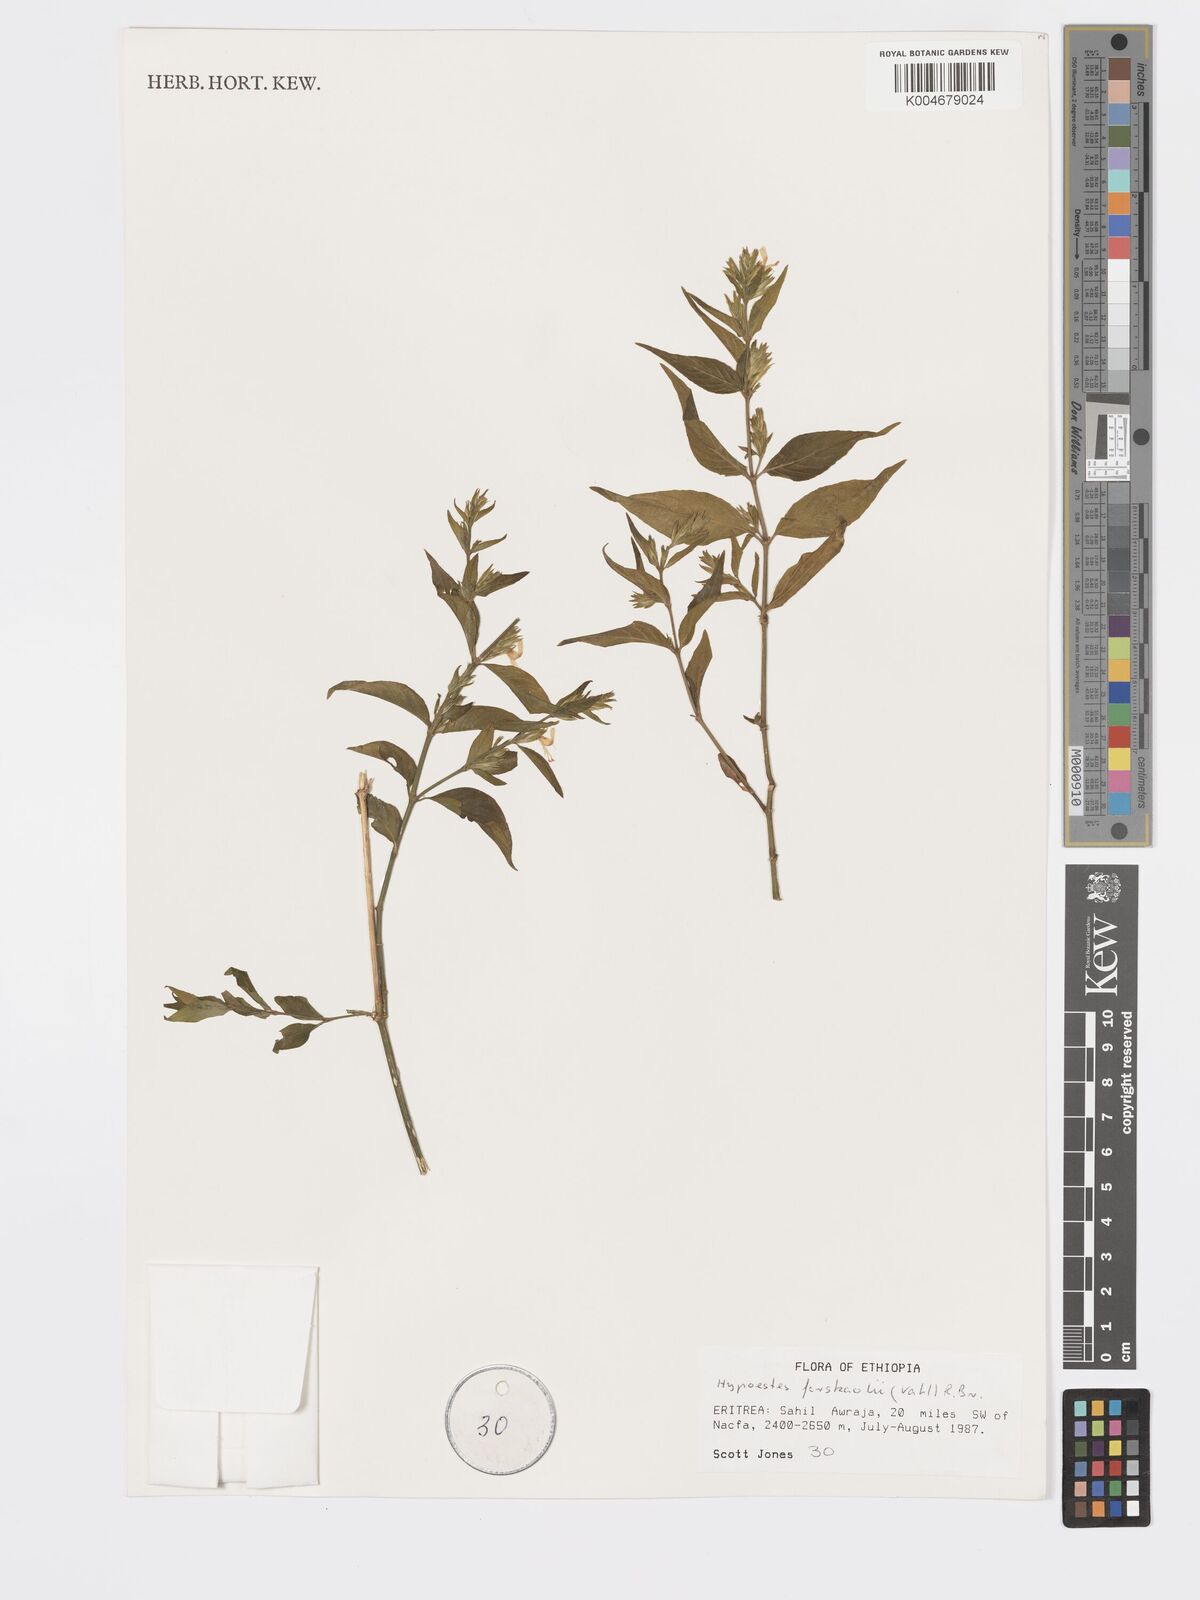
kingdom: Plantae
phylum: Tracheophyta
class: Magnoliopsida
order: Lamiales
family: Acanthaceae
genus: Hypoestes
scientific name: Hypoestes forskaolii
